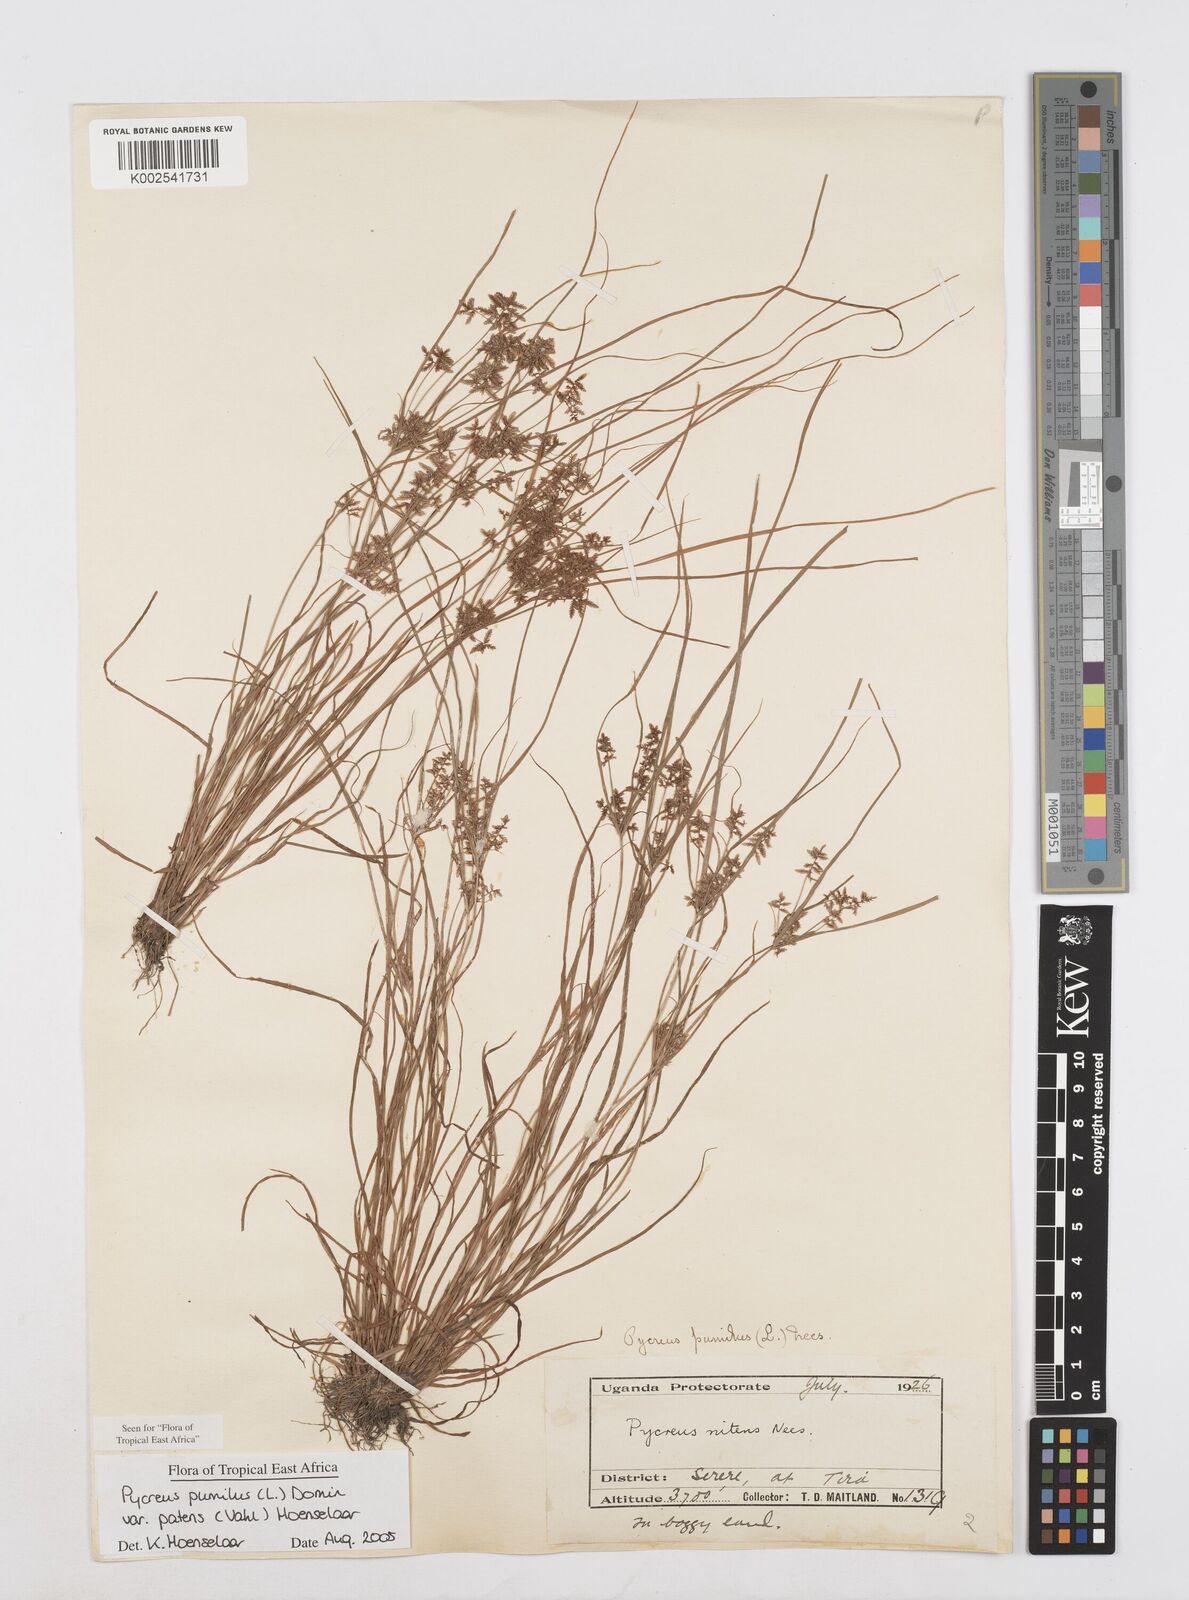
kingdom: Plantae
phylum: Tracheophyta
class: Liliopsida
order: Poales
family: Cyperaceae
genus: Cyperus
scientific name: Cyperus pumilus
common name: Low flatsedge
